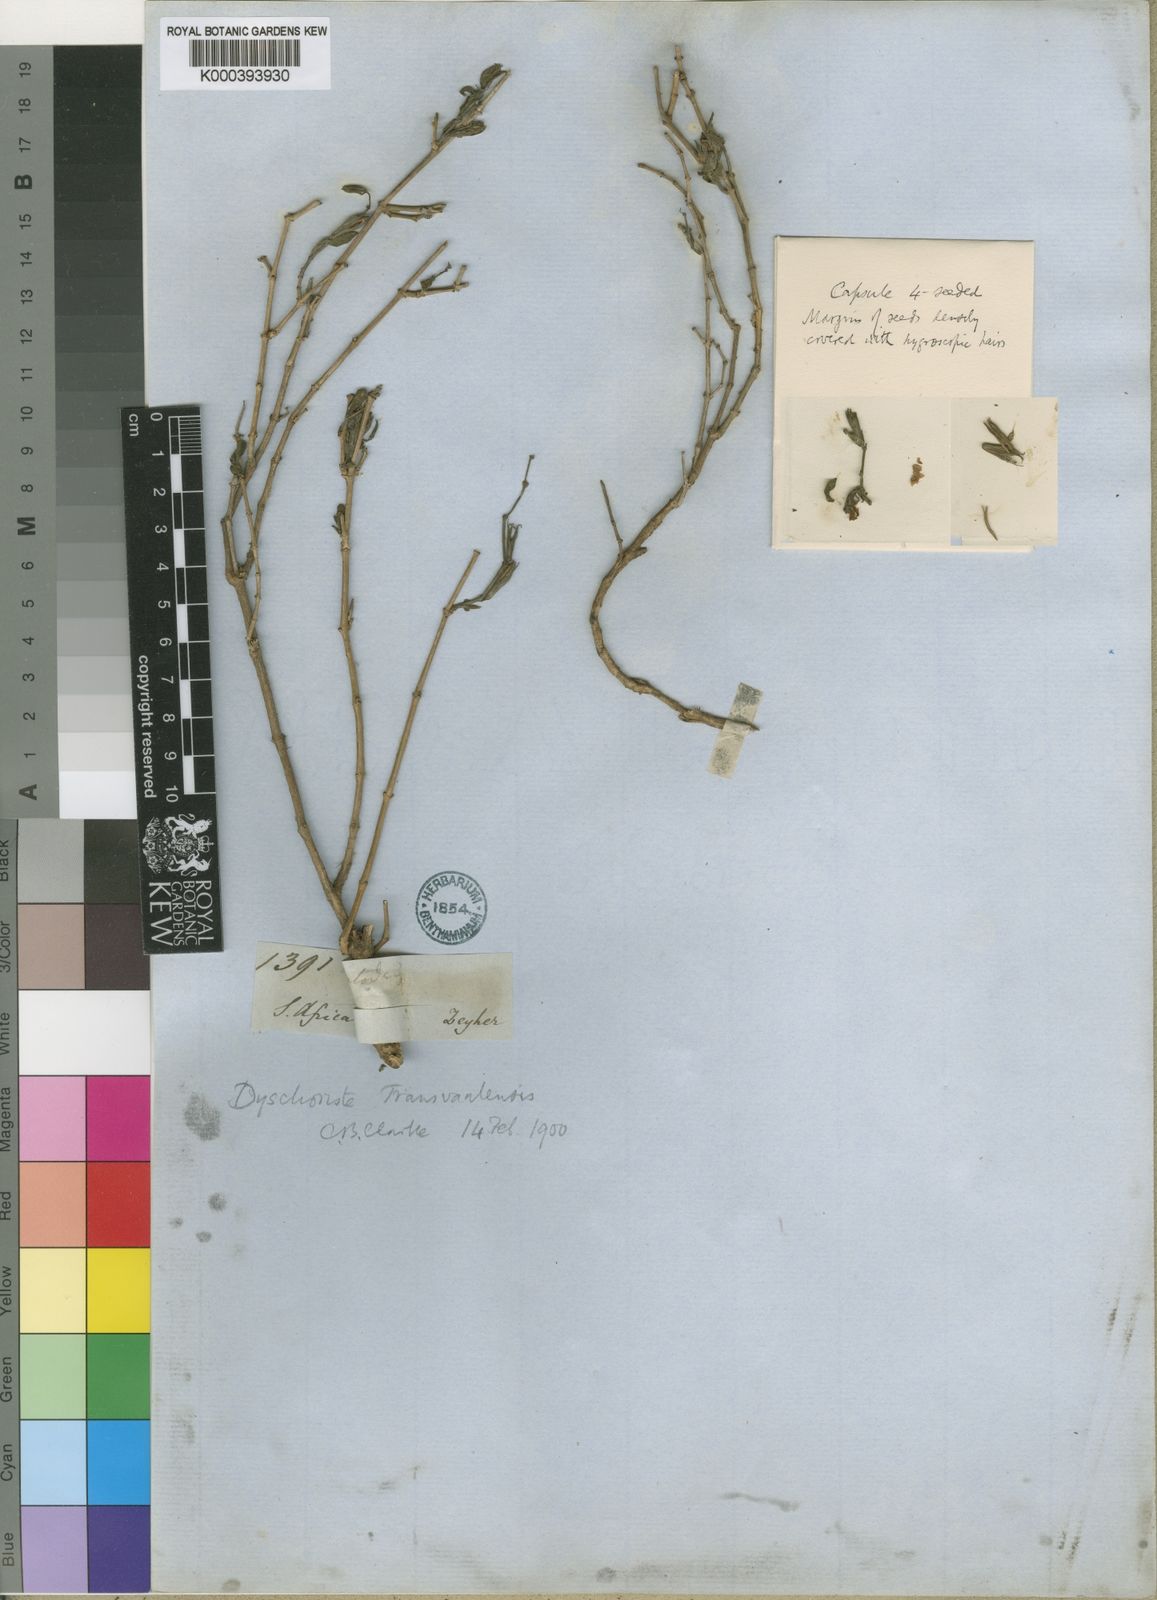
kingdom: Plantae
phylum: Tracheophyta
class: Magnoliopsida
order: Lamiales
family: Acanthaceae
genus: Dyschoriste
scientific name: Dyschoriste capricornis
